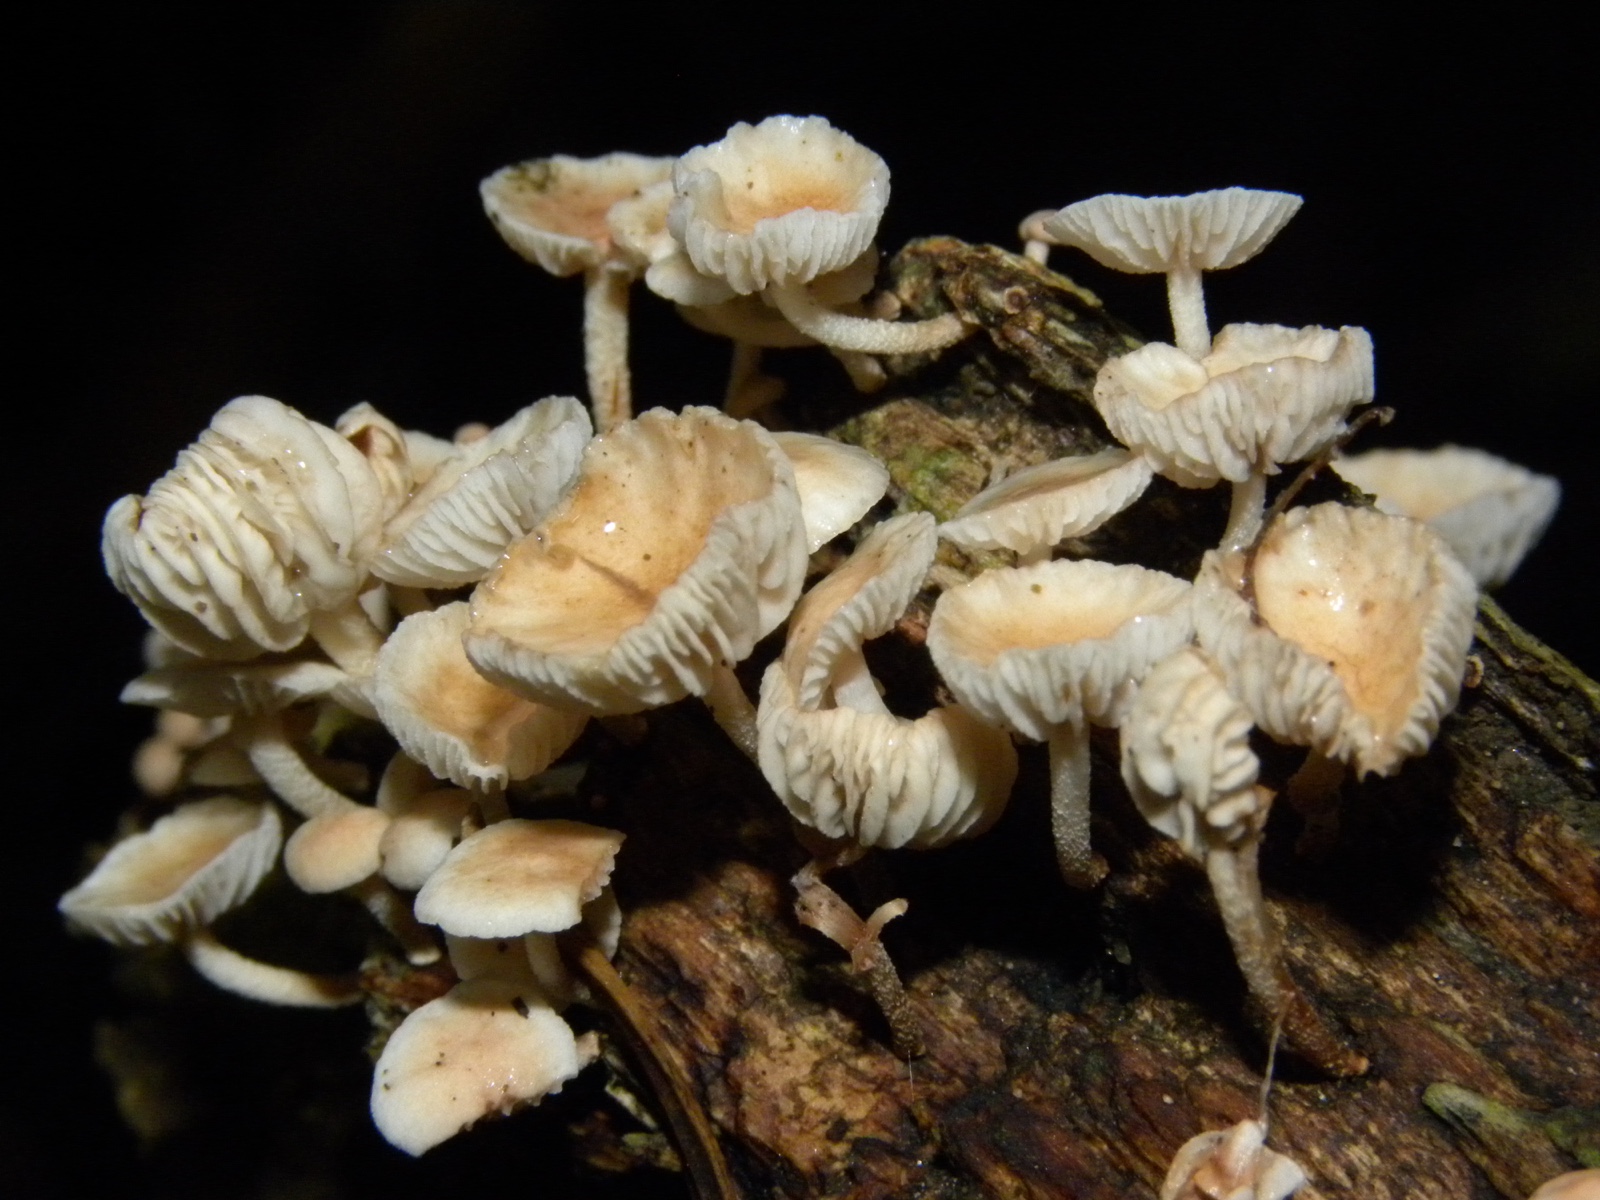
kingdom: Fungi
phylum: Basidiomycota
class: Agaricomycetes
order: Agaricales
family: Omphalotaceae
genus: Collybiopsis
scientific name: Collybiopsis ramealis
